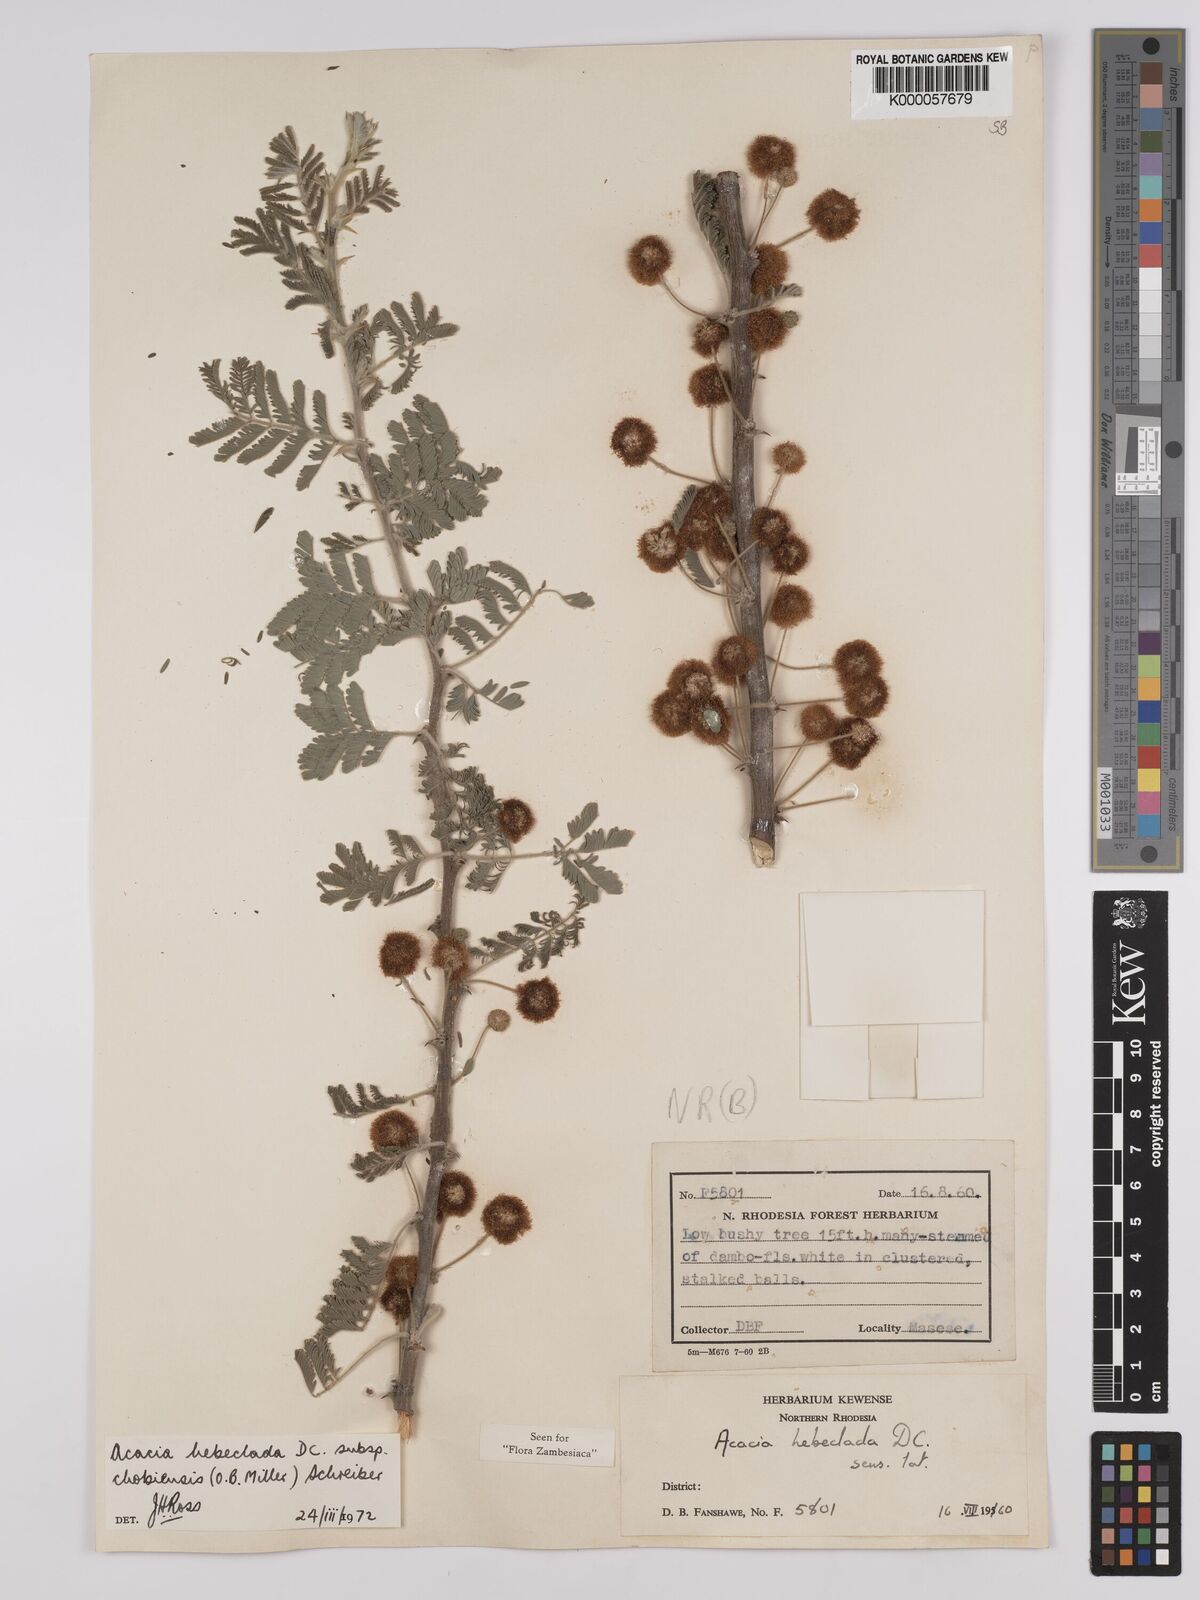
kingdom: Plantae
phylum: Tracheophyta
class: Magnoliopsida
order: Fabales
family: Fabaceae
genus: Vachellia
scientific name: Vachellia hebeclada
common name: Candle thorn
